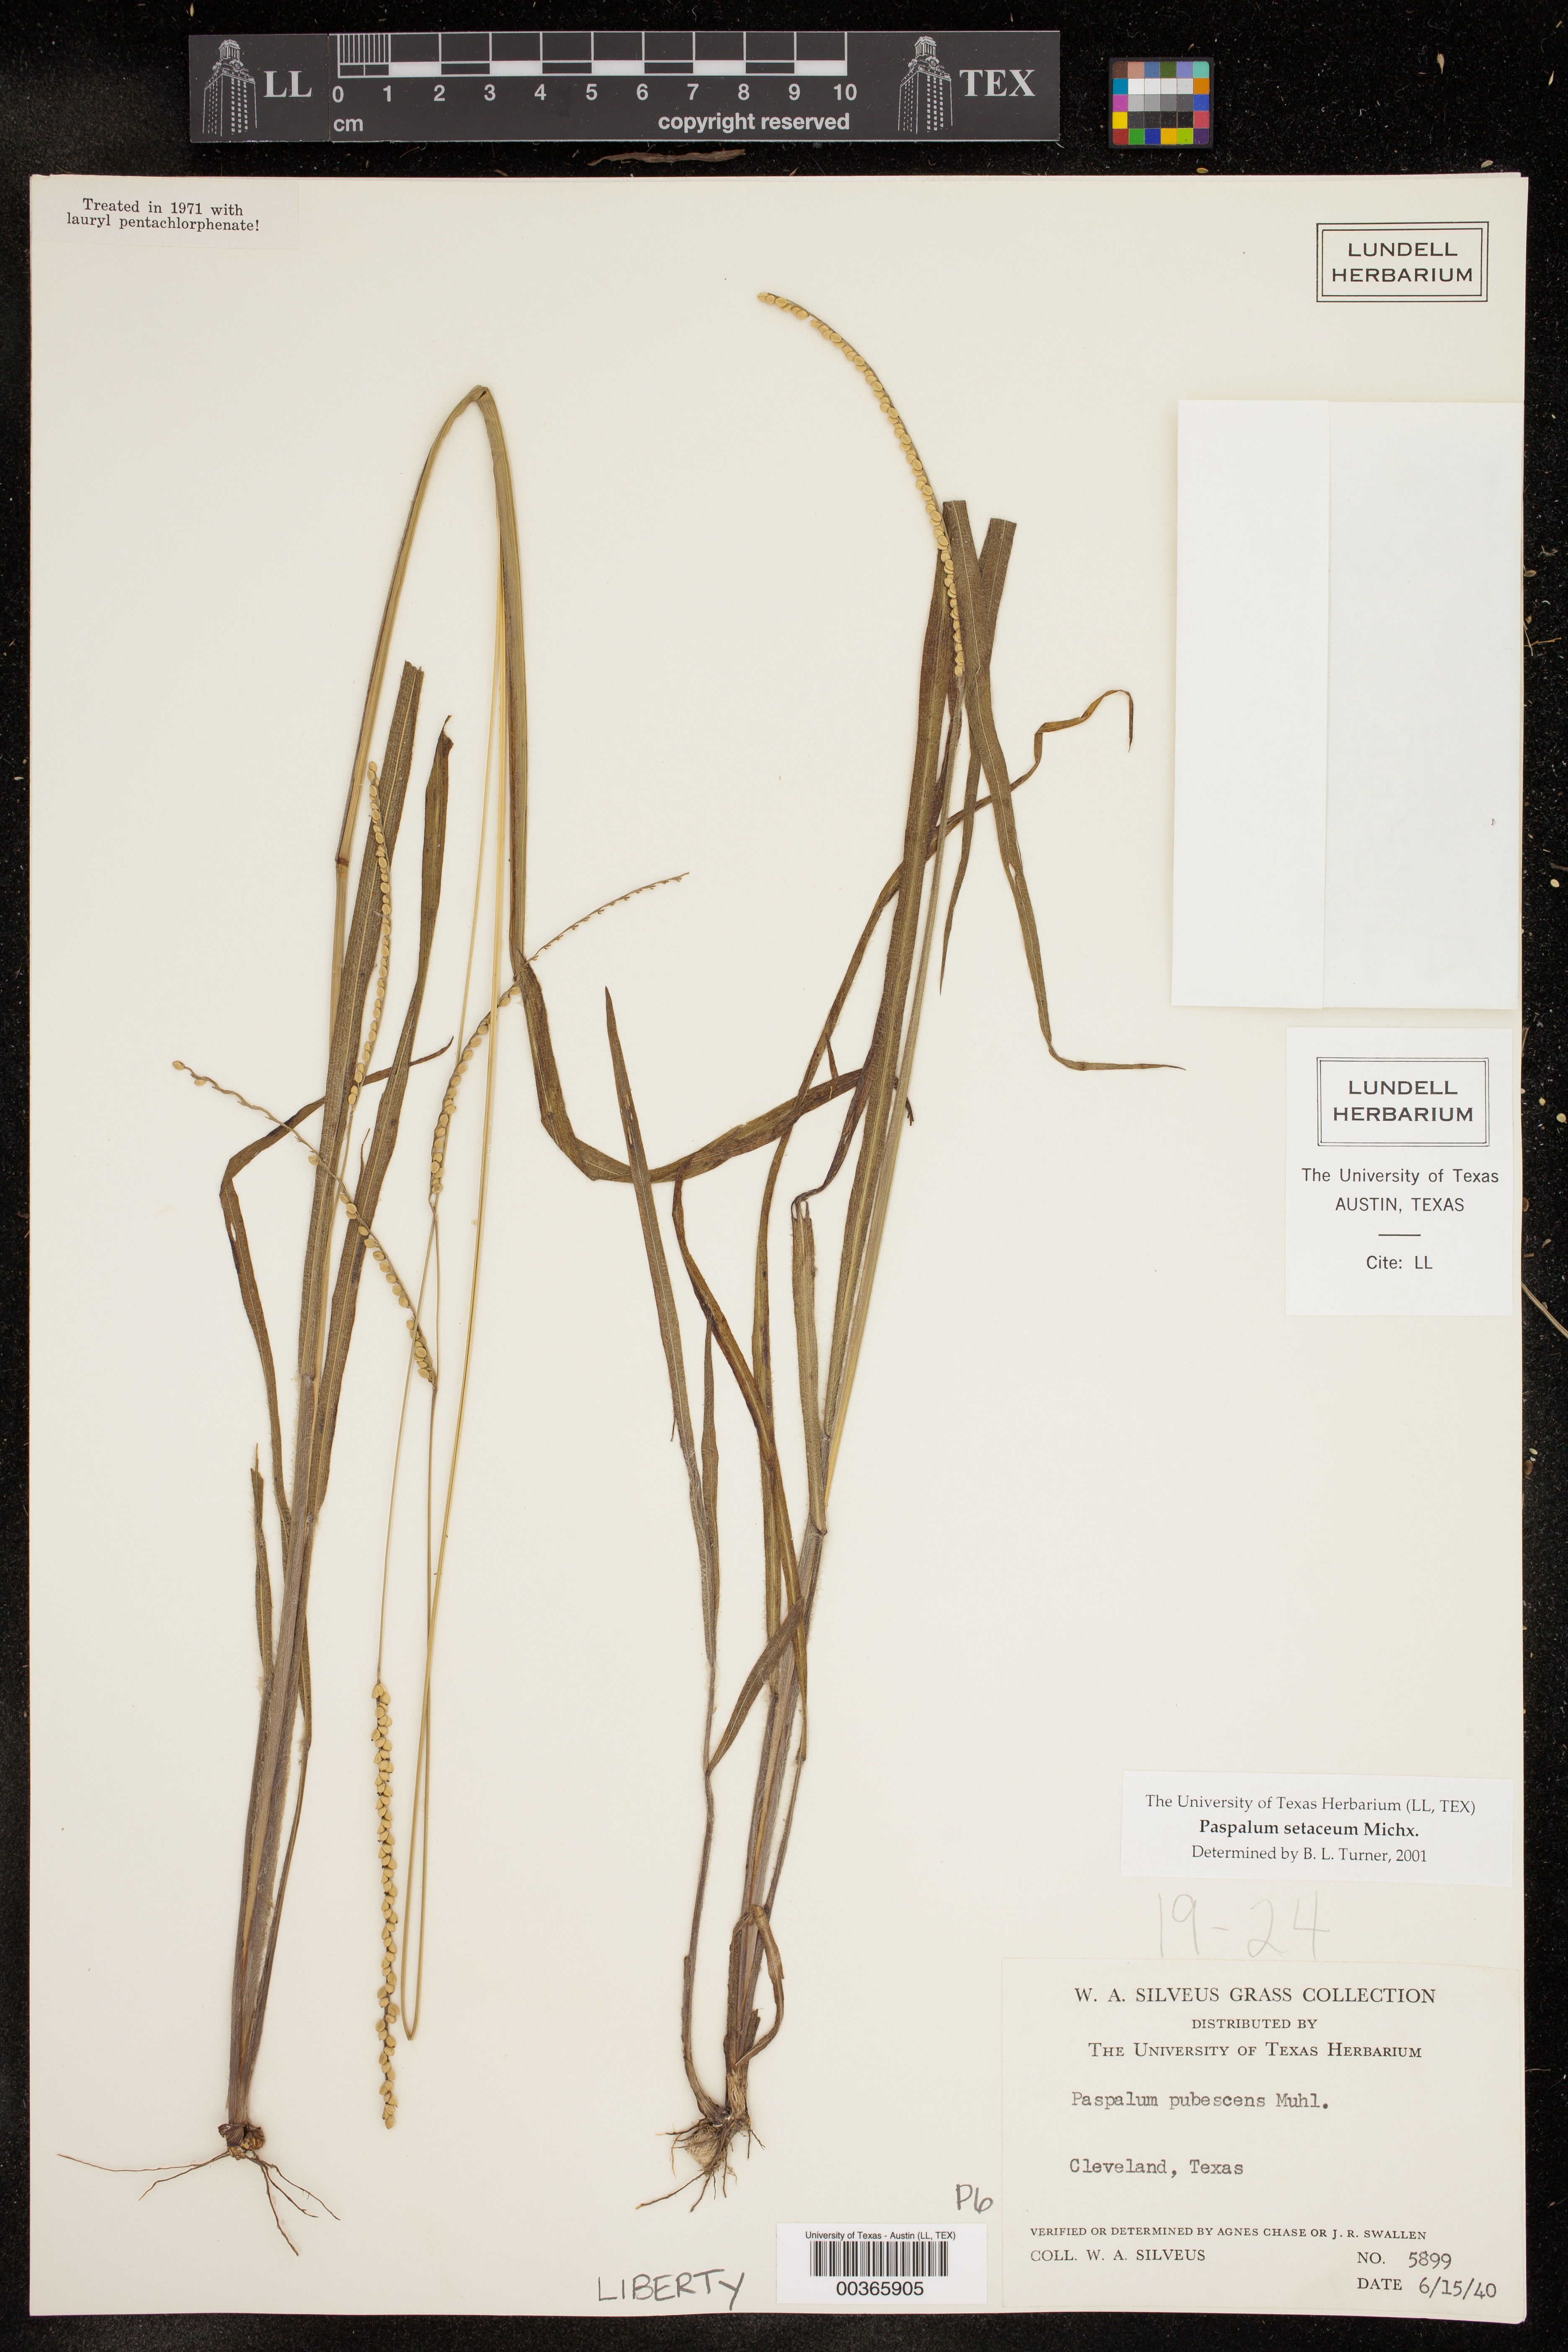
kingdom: Plantae
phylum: Tracheophyta
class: Liliopsida
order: Poales
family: Poaceae
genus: Paspalum
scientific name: Paspalum setaceum
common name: Slender paspalum
